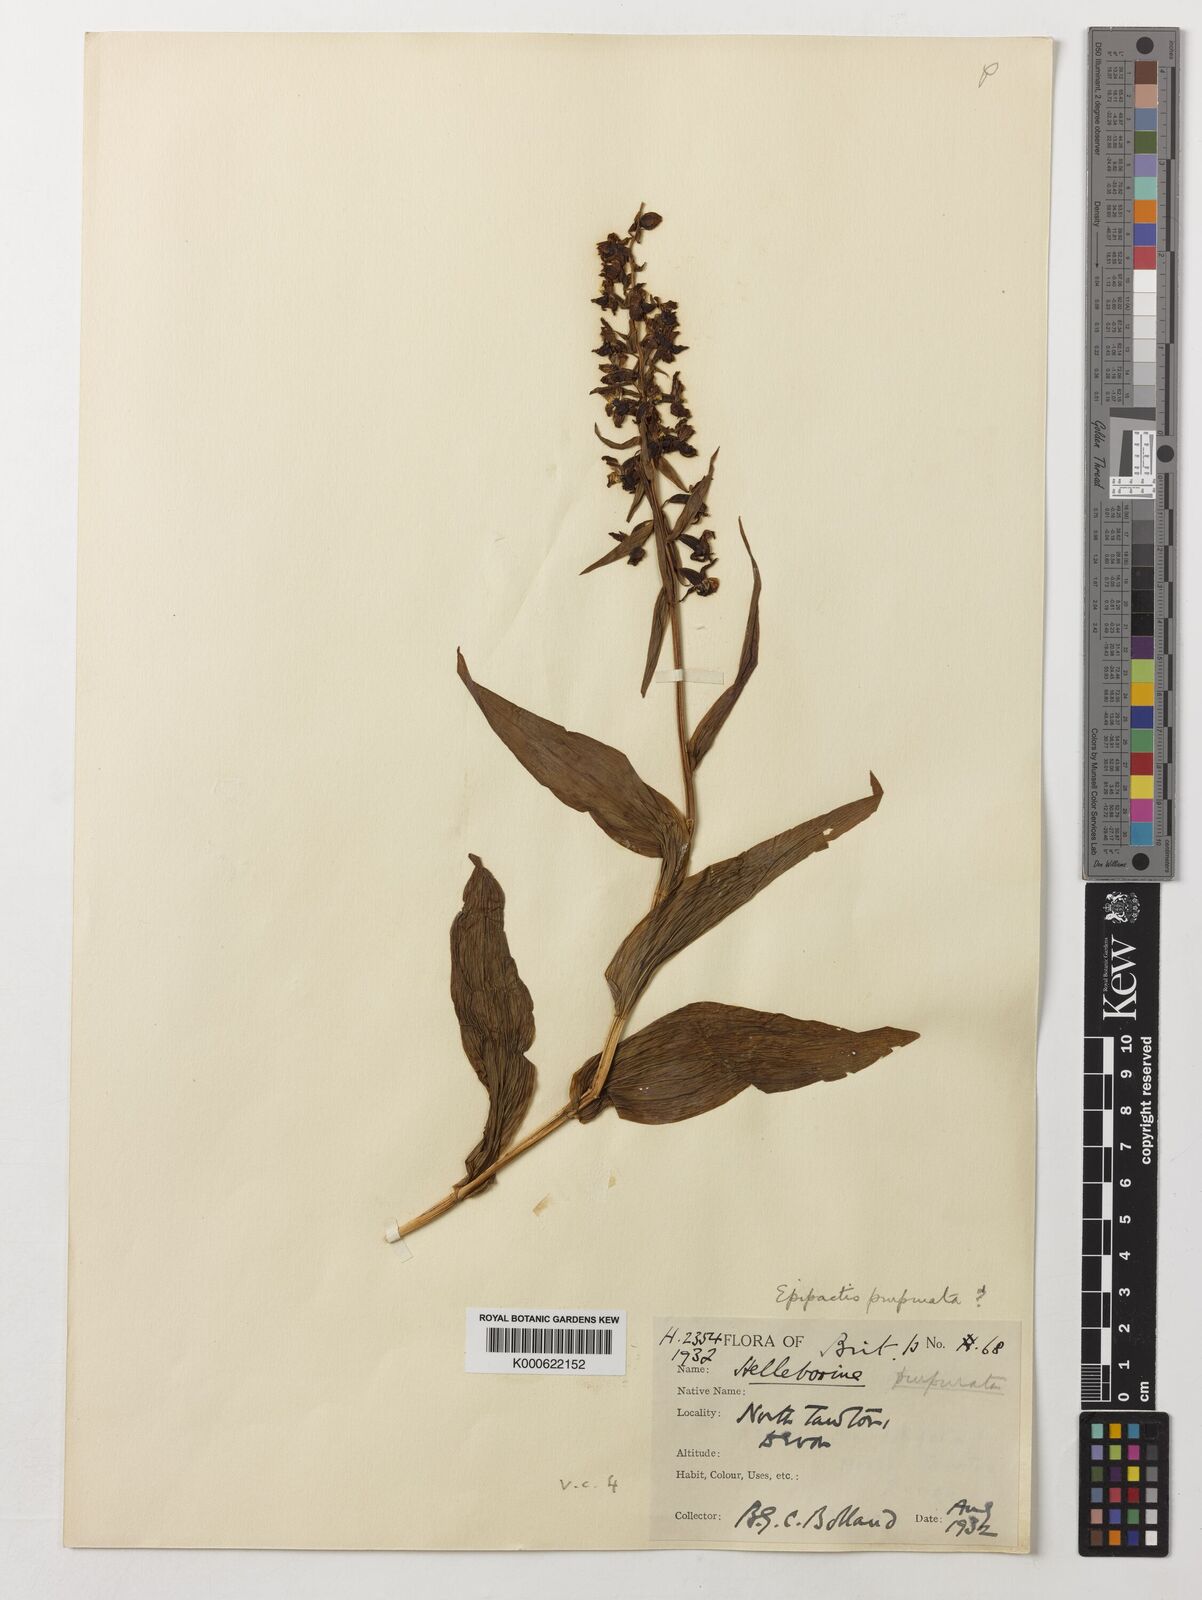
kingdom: Plantae
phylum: Tracheophyta
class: Liliopsida
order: Asparagales
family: Orchidaceae
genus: Epipactis
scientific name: Epipactis purpurata
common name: Violet helleborine
